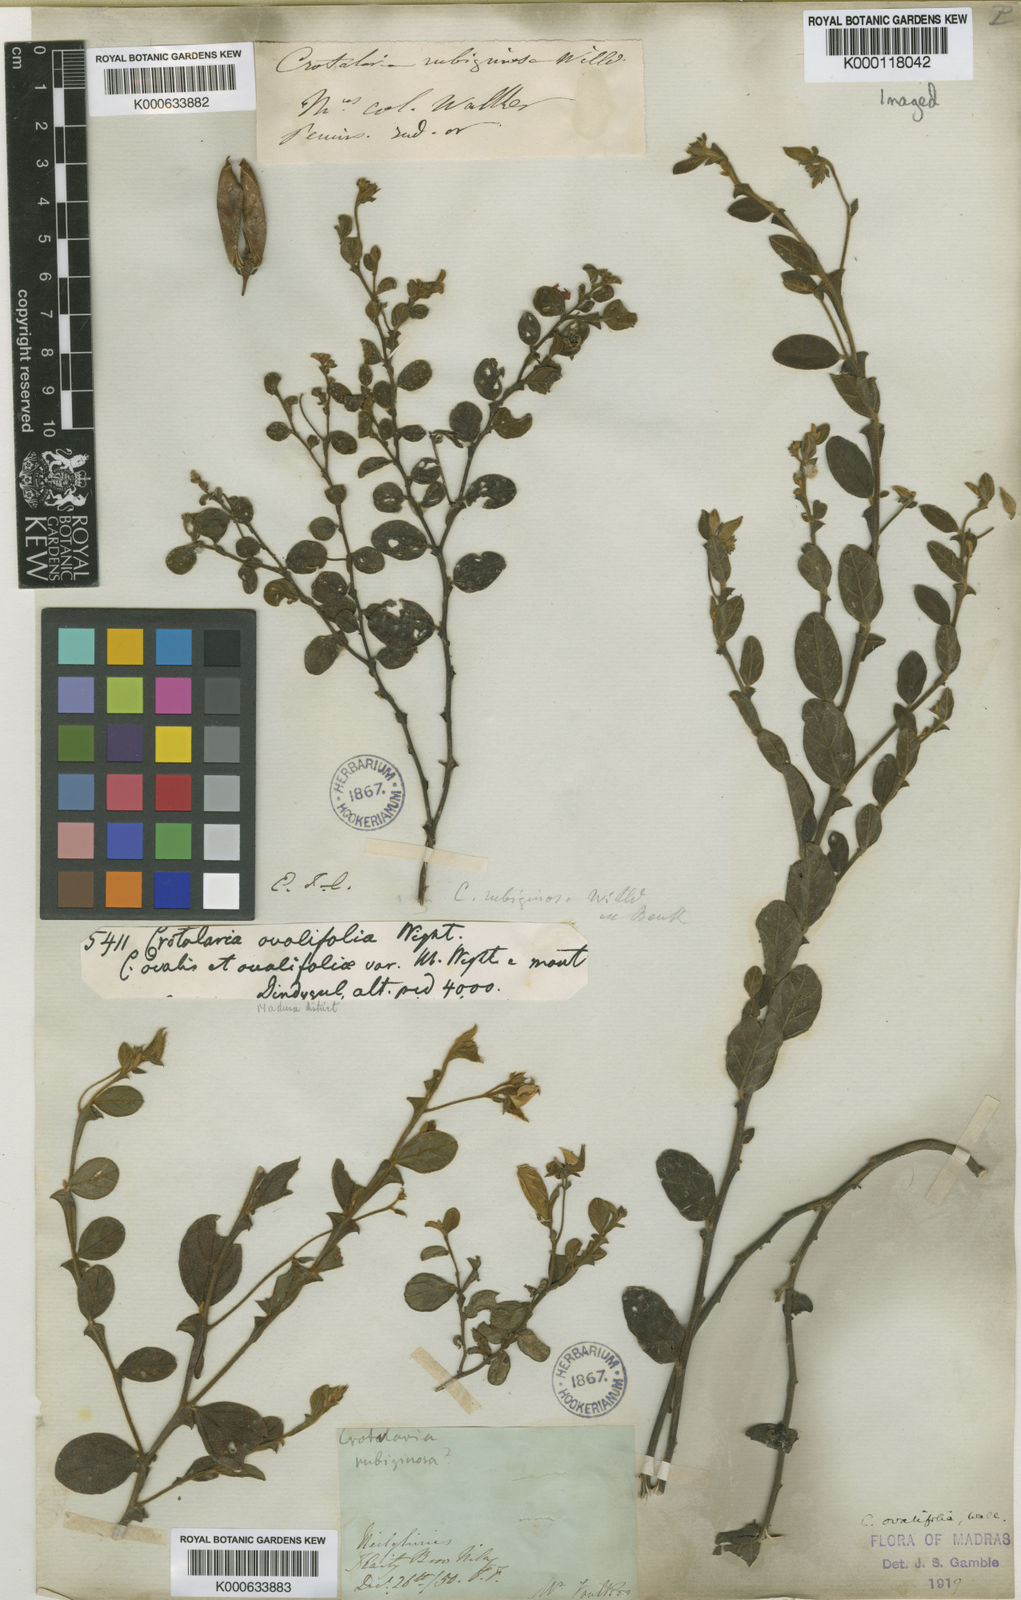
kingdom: Plantae
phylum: Tracheophyta
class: Magnoliopsida
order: Fabales
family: Fabaceae
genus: Crotalaria
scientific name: Crotalaria
